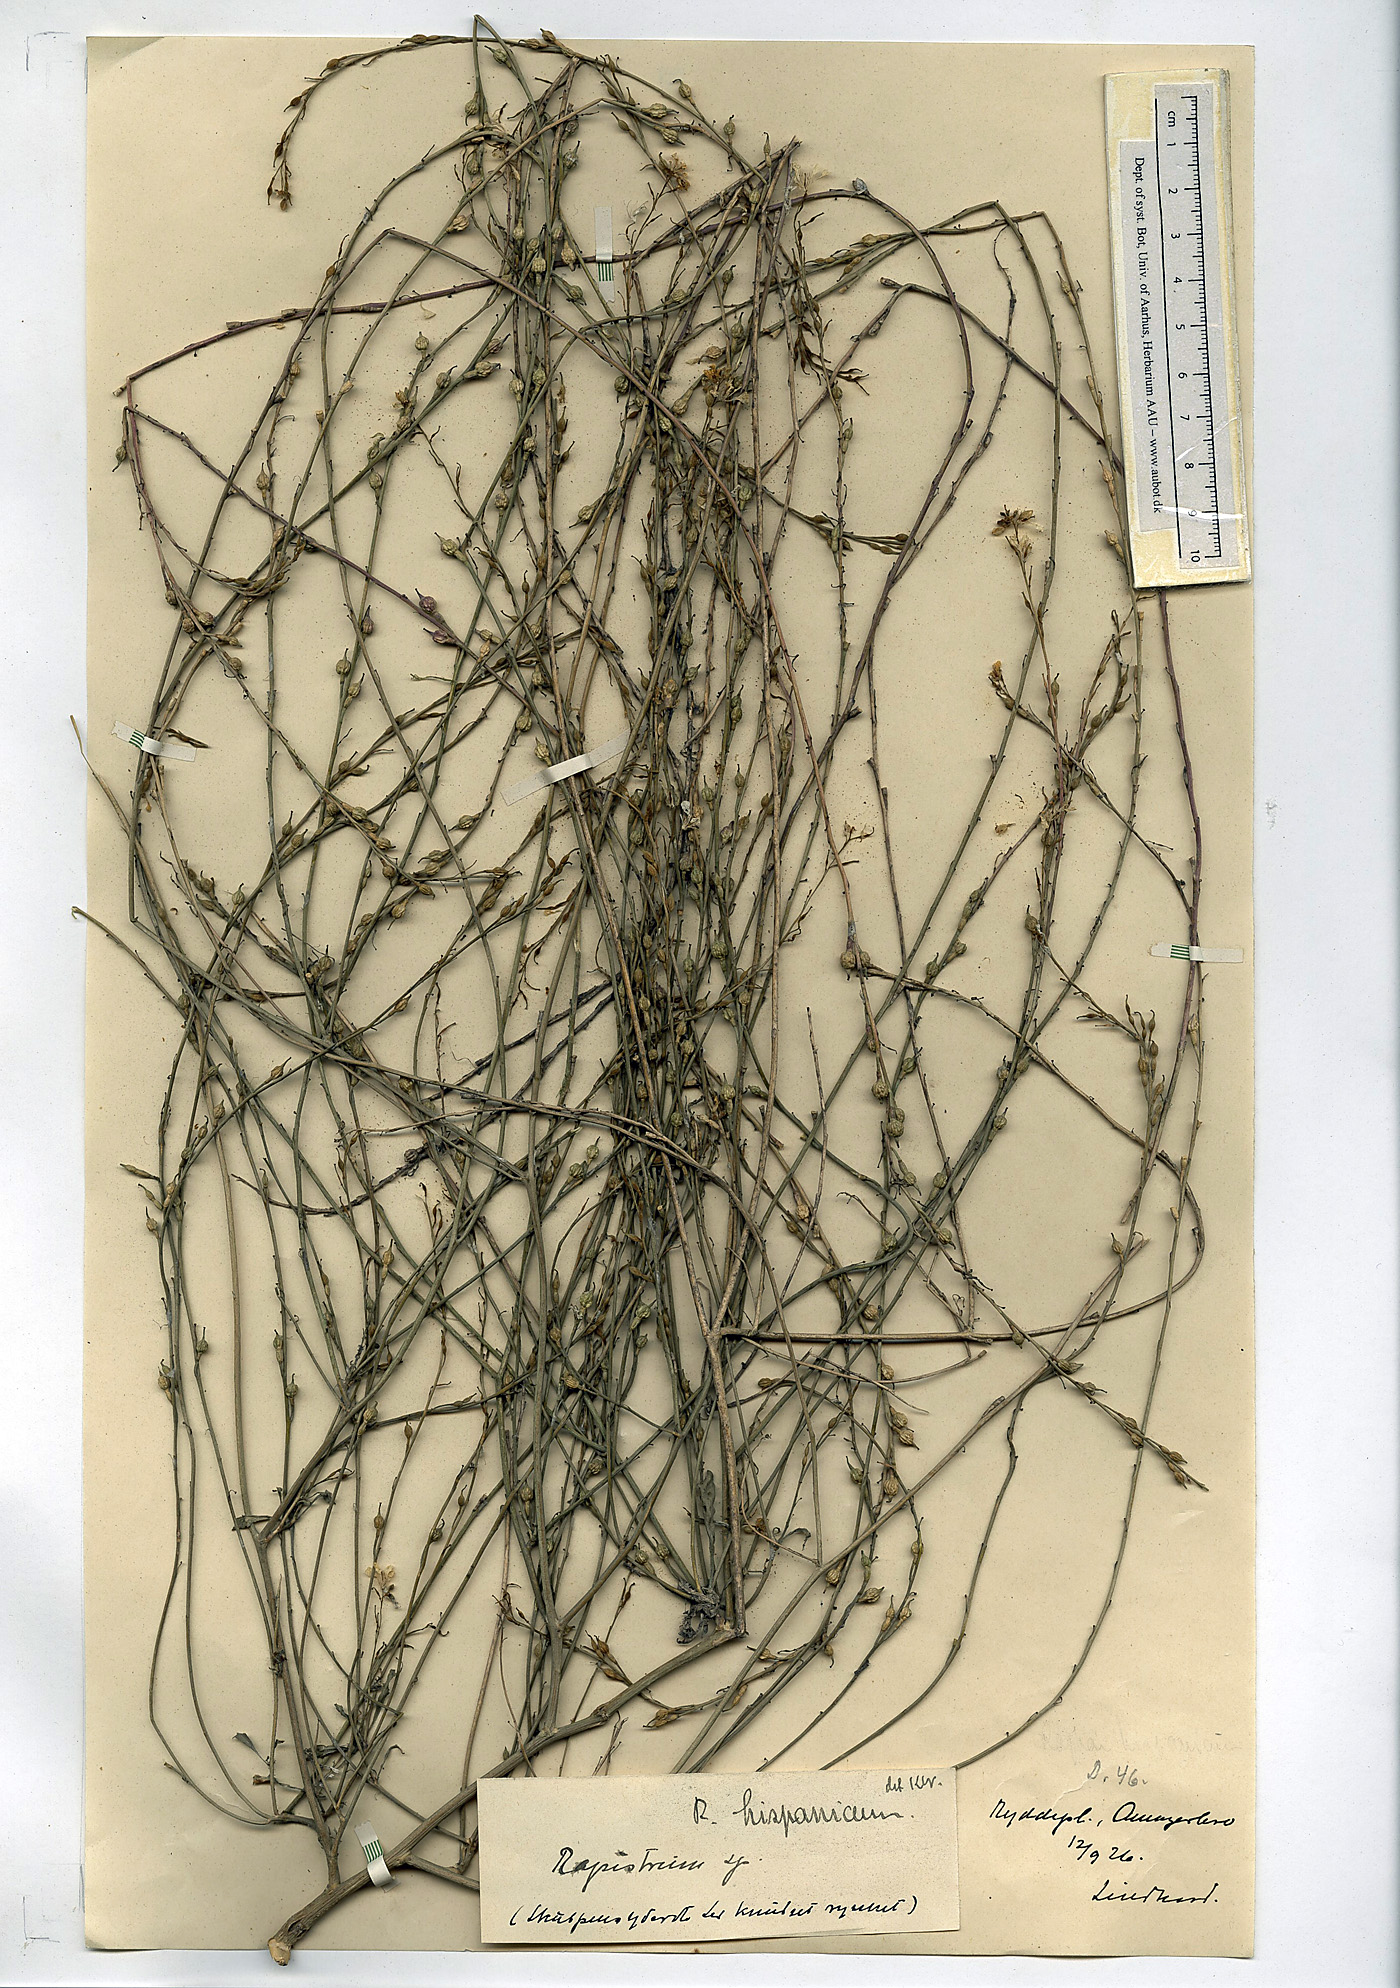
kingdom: Plantae
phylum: Tracheophyta
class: Magnoliopsida
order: Brassicales
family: Brassicaceae
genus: Rapistrum
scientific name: Rapistrum rugosum
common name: Annual bastardcabbage
